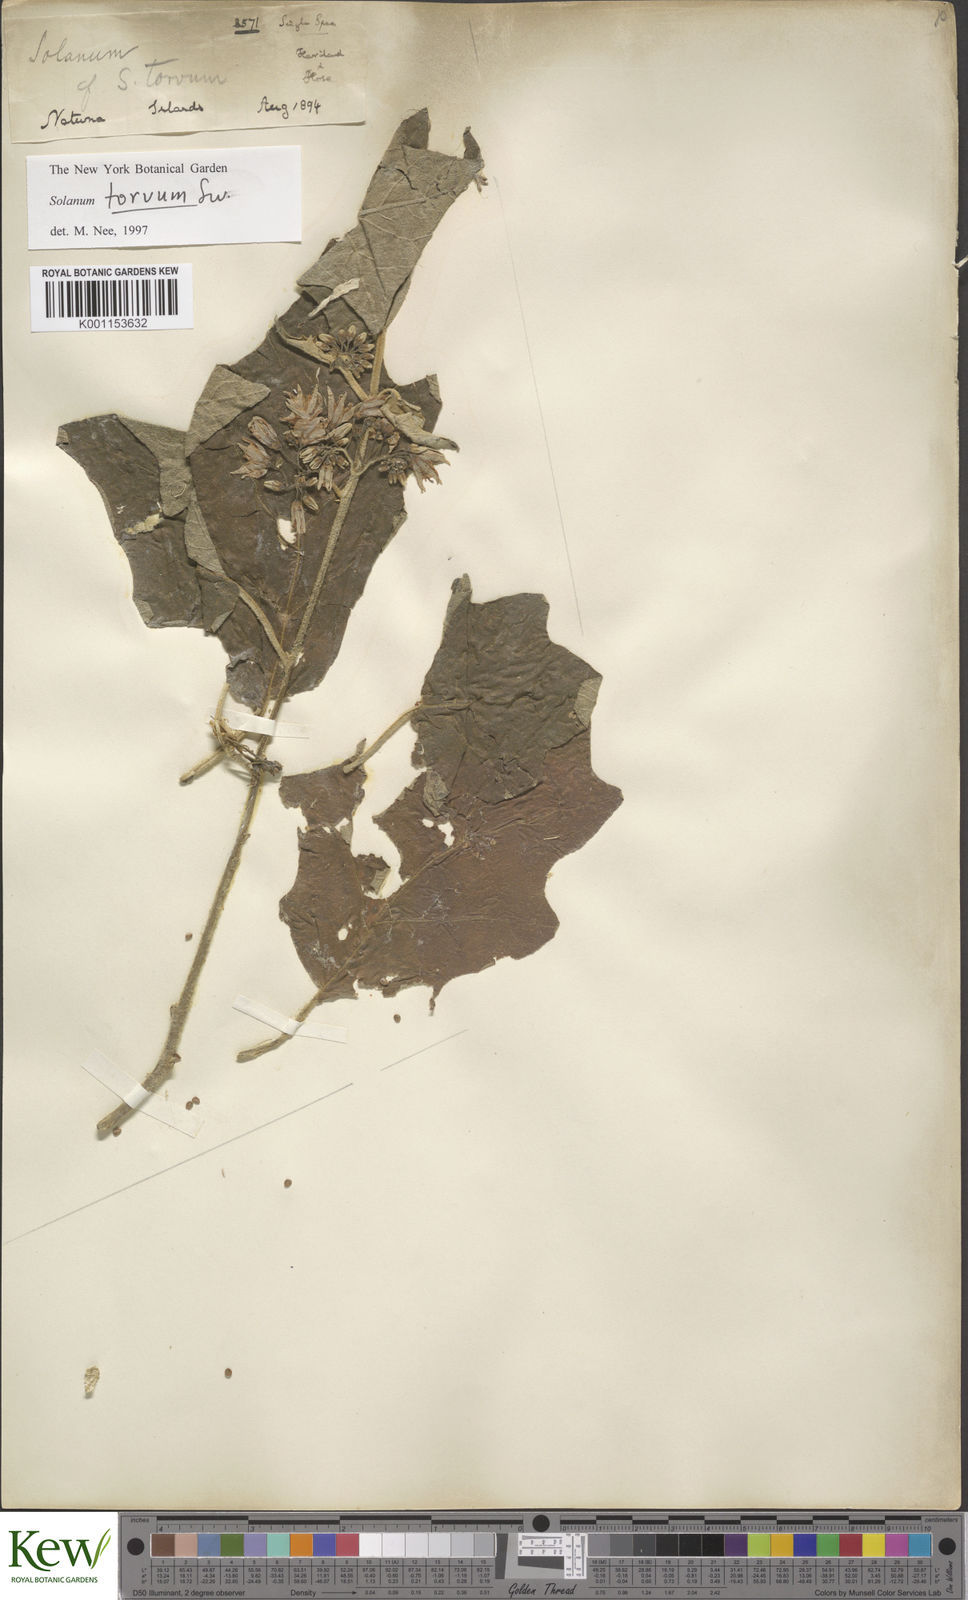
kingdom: Plantae
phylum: Tracheophyta
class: Magnoliopsida
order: Solanales
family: Solanaceae
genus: Solanum
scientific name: Solanum torvum
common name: Turkey berry
